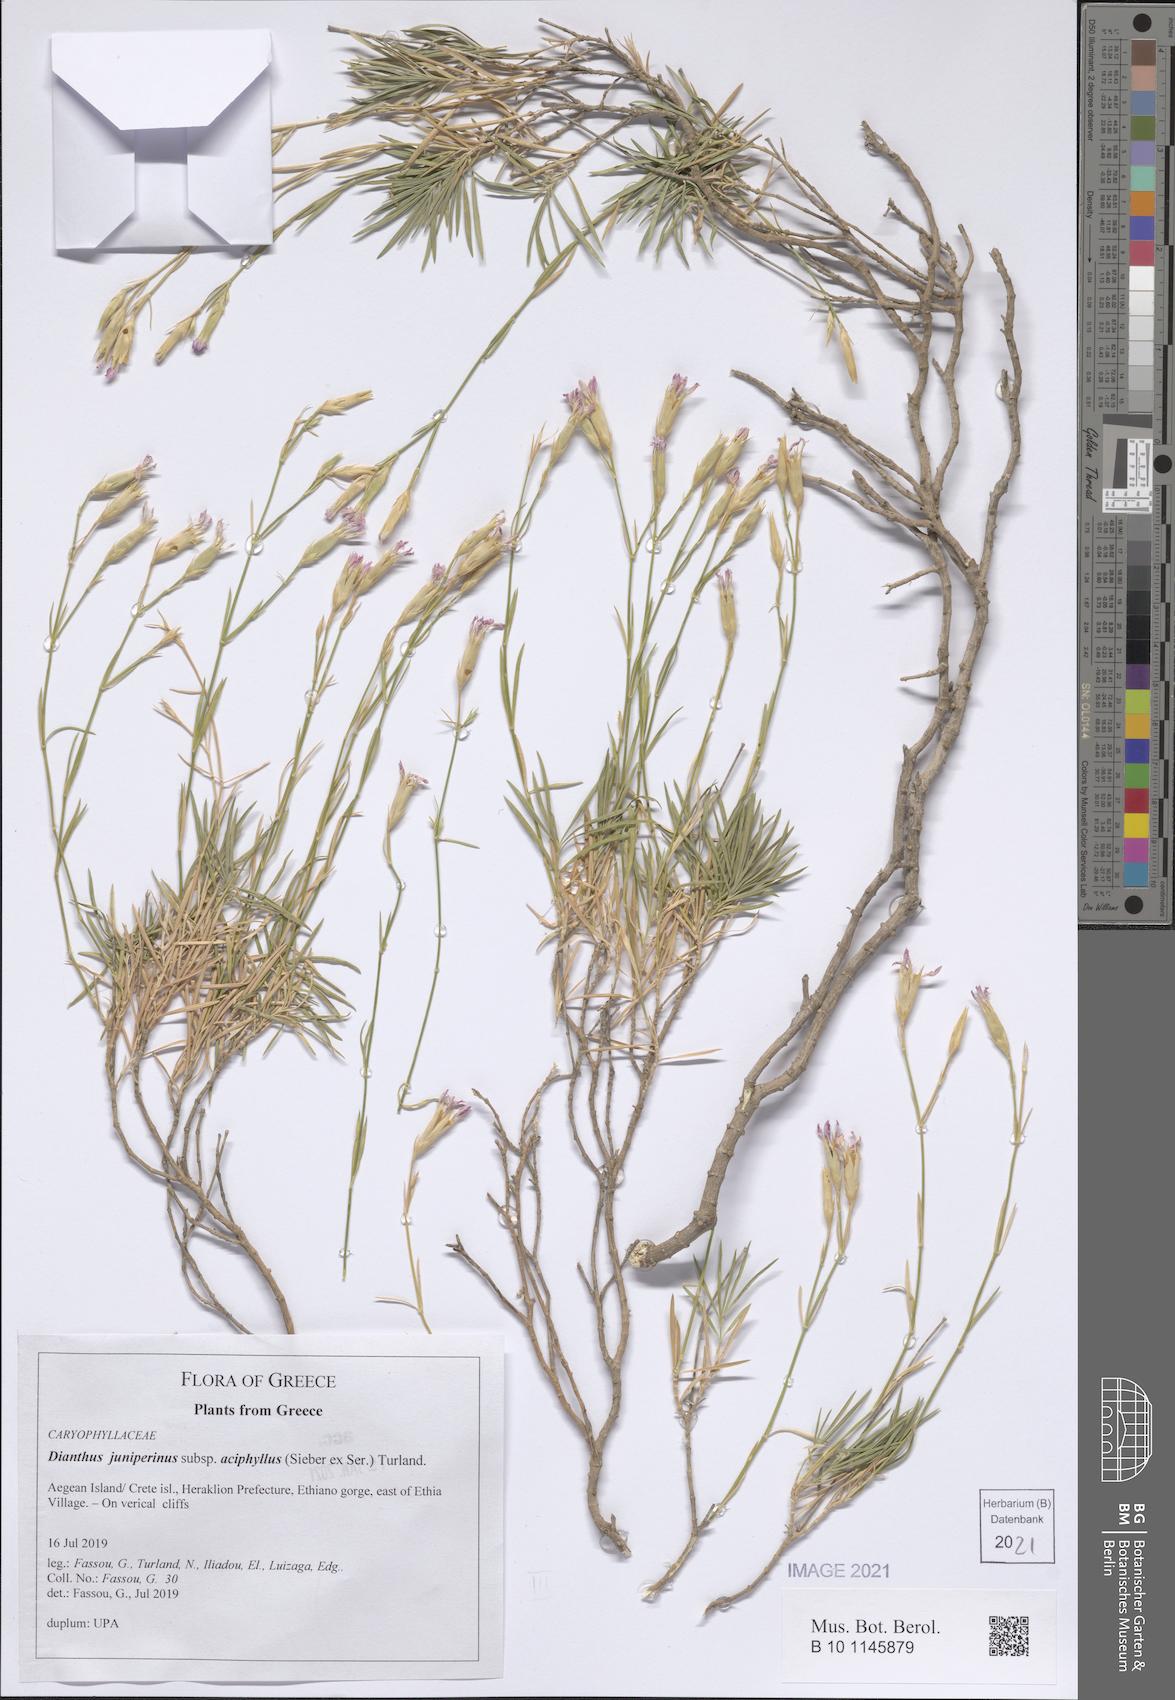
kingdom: Plantae
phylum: Tracheophyta
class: Magnoliopsida
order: Caryophyllales
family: Caryophyllaceae
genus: Dianthus
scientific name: Dianthus juniperinus
